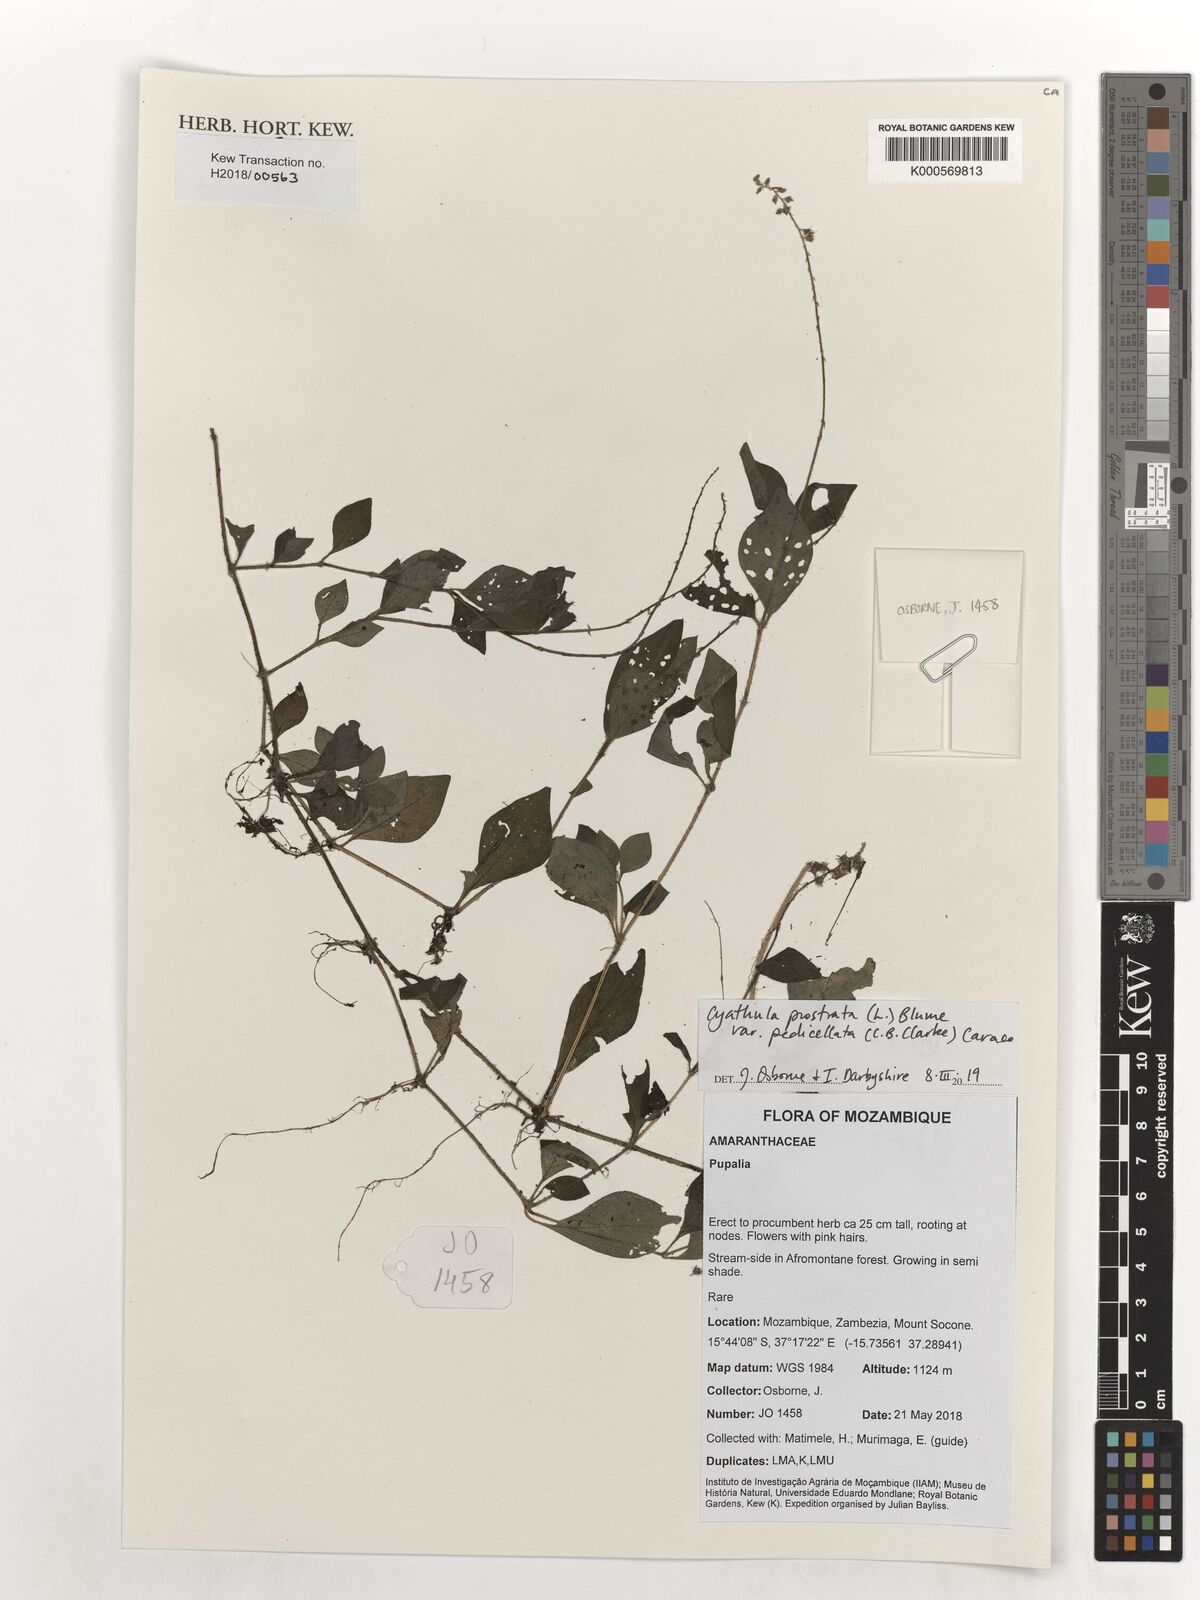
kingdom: Plantae
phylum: Tracheophyta
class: Magnoliopsida
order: Caryophyllales
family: Amaranthaceae
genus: Cyathula
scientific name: Cyathula prostrata
